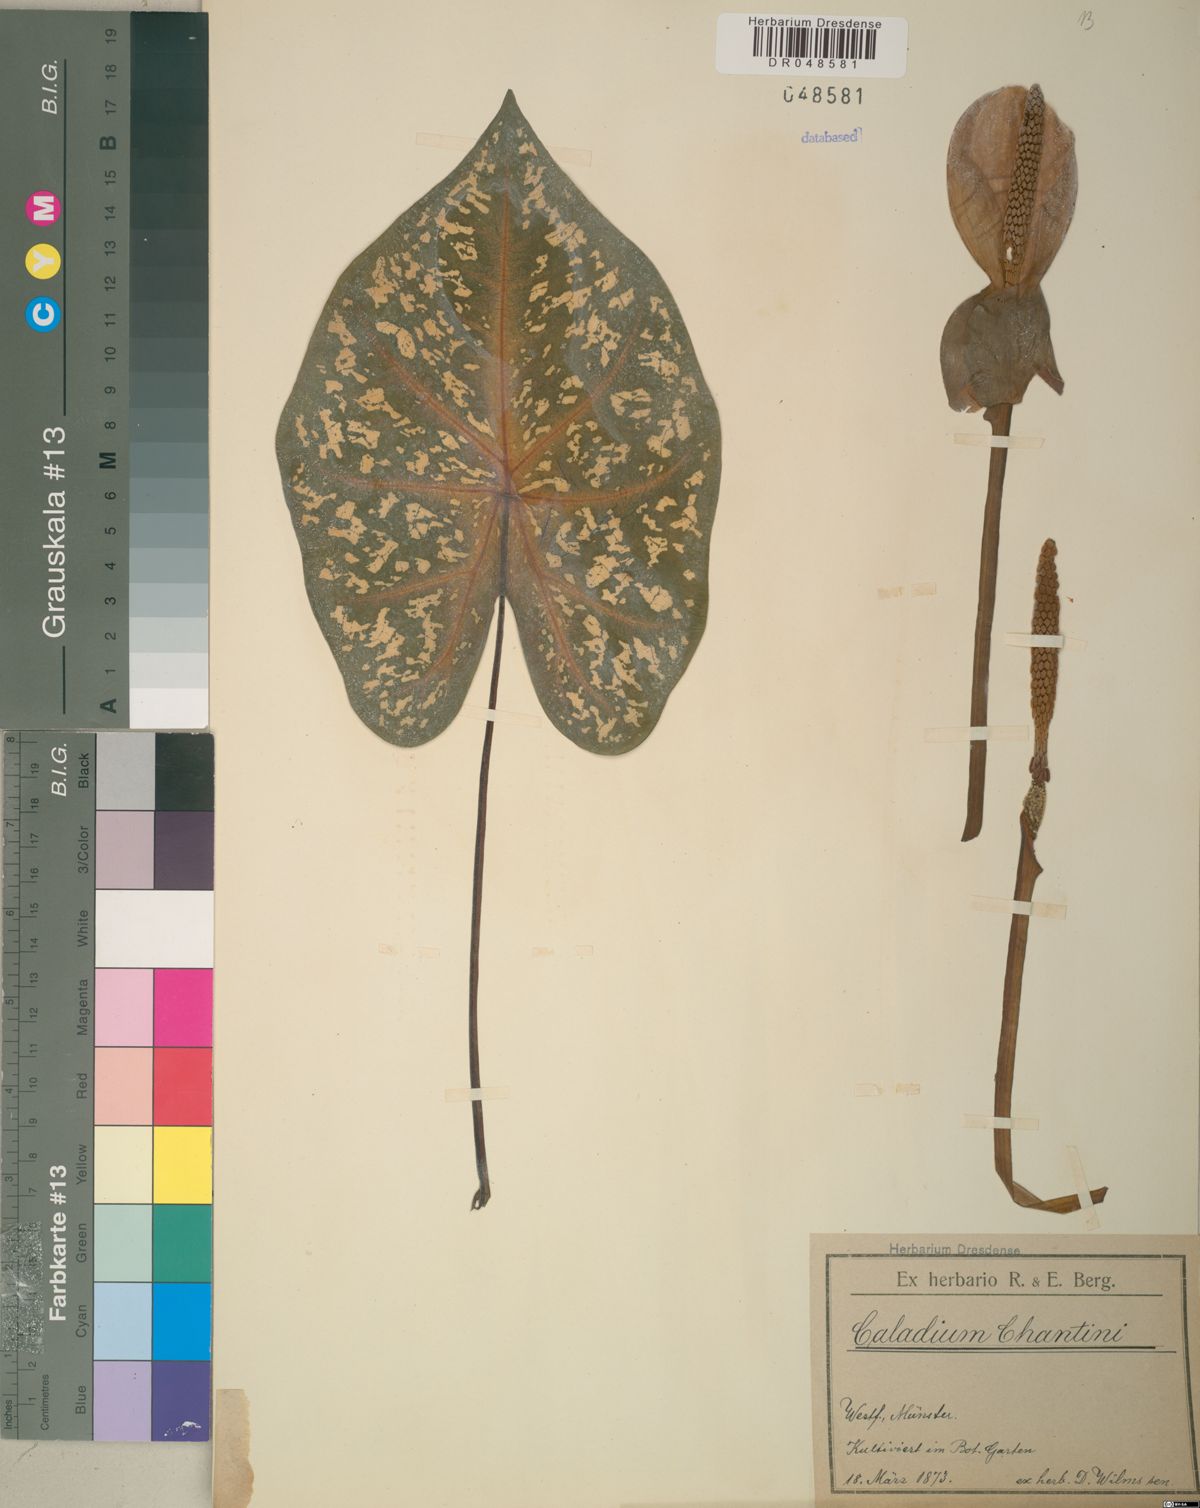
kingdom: Plantae
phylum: Tracheophyta
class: Liliopsida
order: Alismatales
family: Araceae
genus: Caladium
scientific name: Caladium bicolor
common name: Artist's pallet
